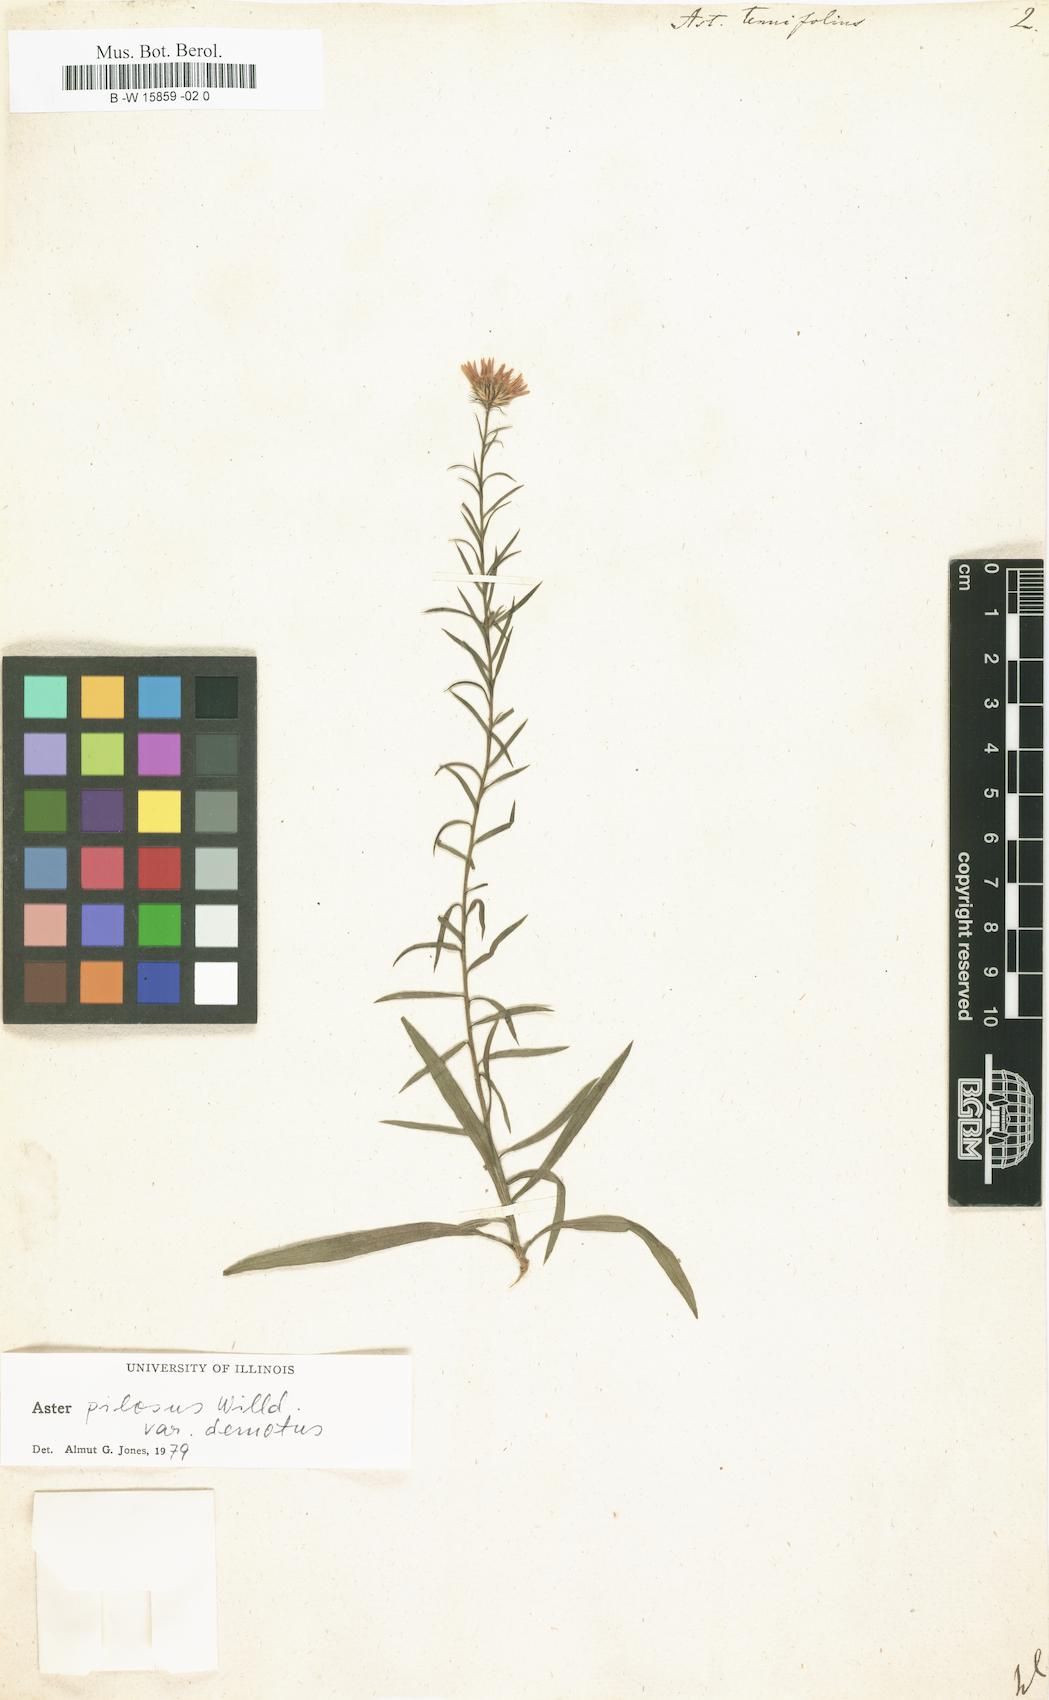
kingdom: Plantae
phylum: Tracheophyta
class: Magnoliopsida
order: Asterales
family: Asteraceae
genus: Symphyotrichum
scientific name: Symphyotrichum tenuifolium
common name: Perennial salt-marsh aster
